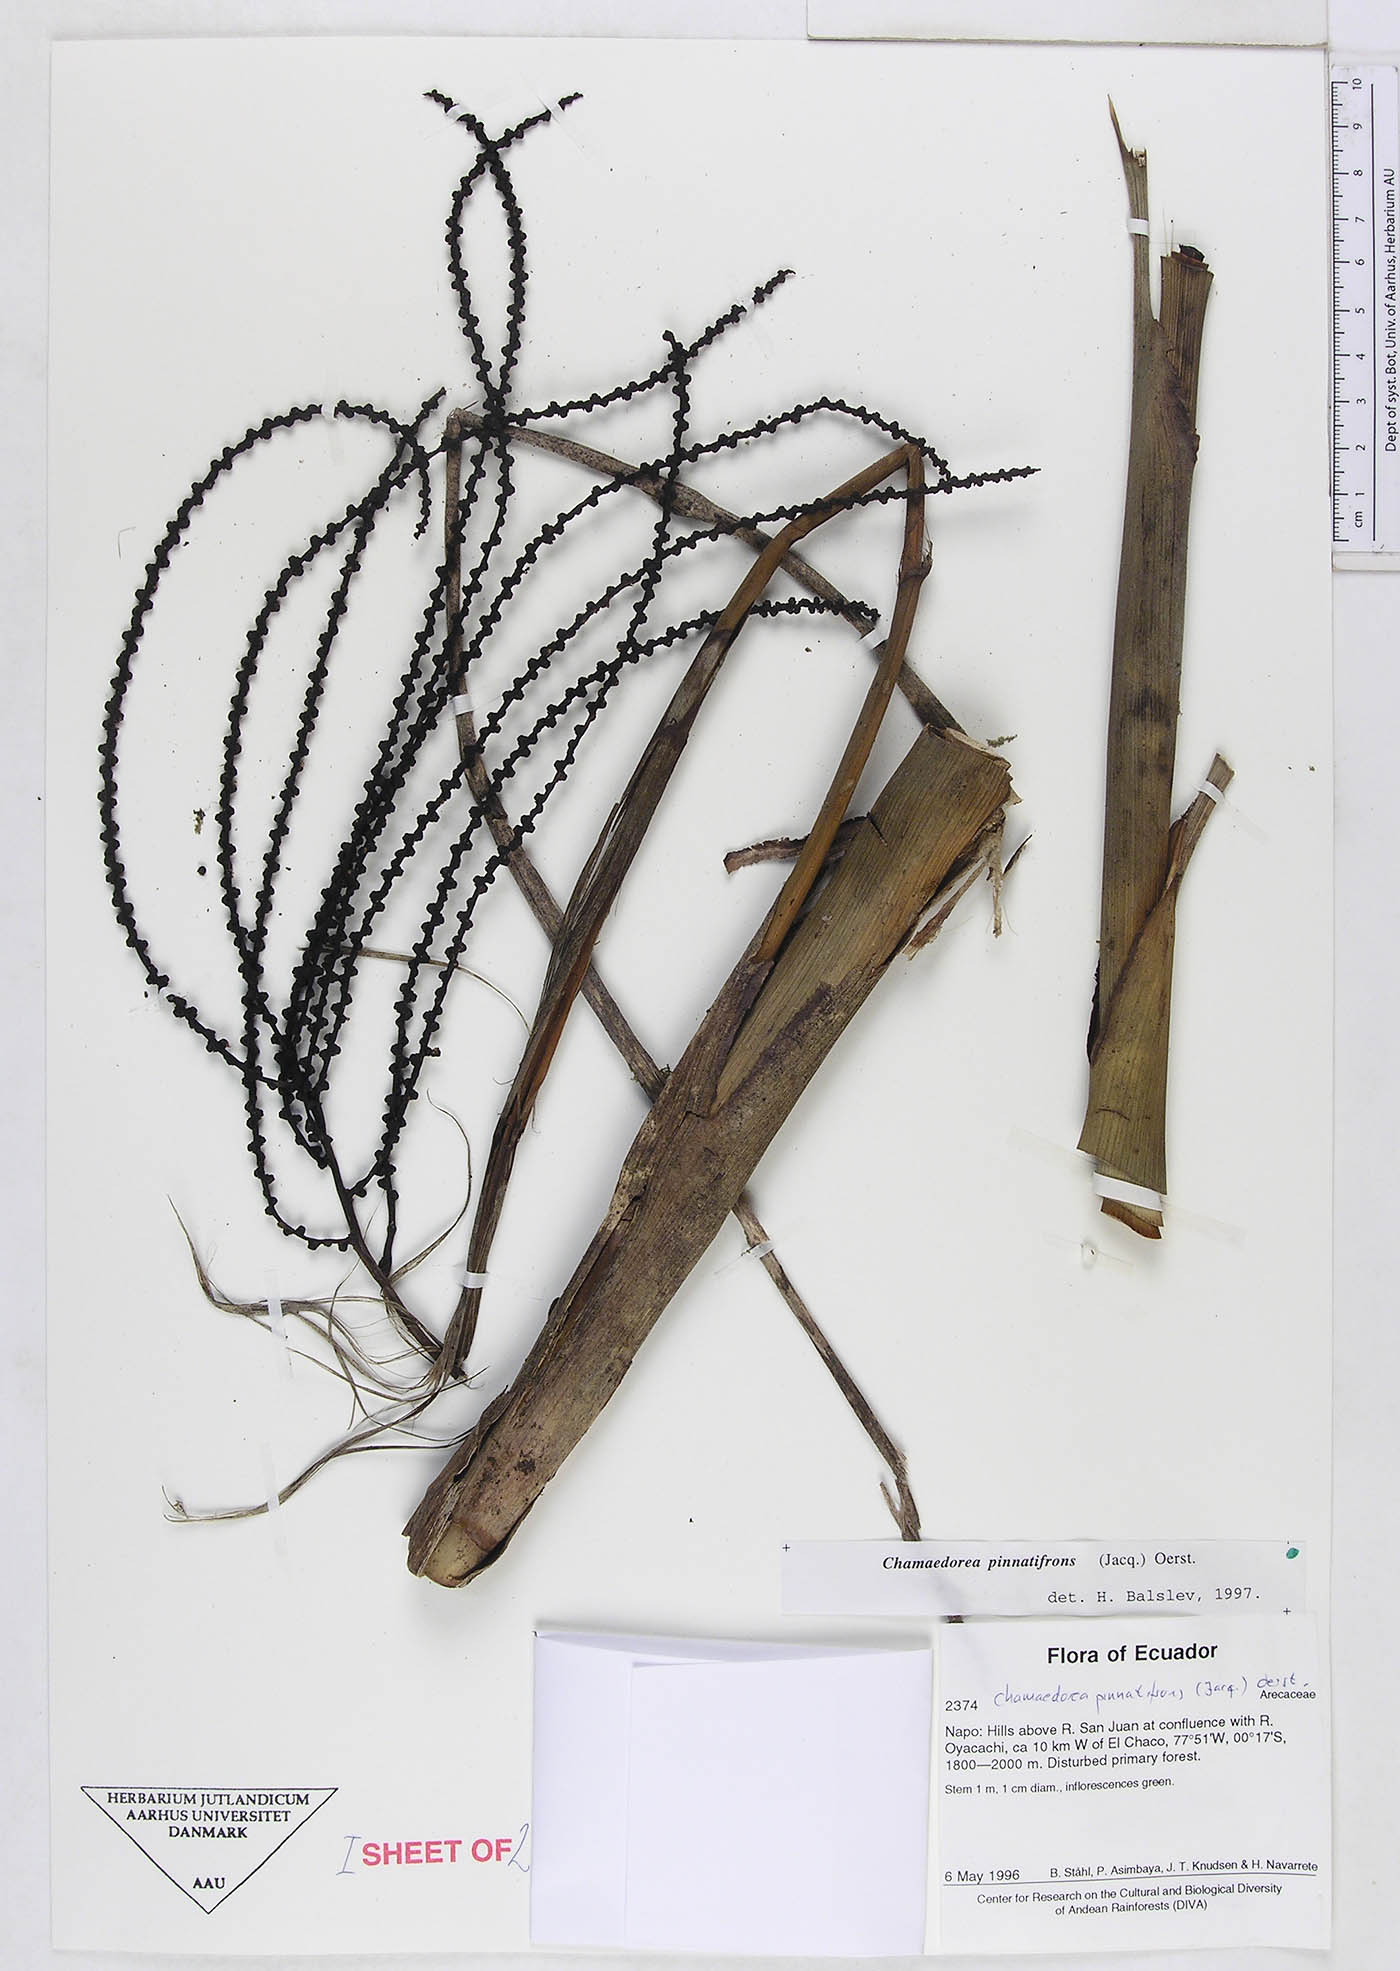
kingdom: Plantae
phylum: Tracheophyta
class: Liliopsida
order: Arecales
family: Arecaceae
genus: Chamaedorea
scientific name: Chamaedorea pinnatifrons
